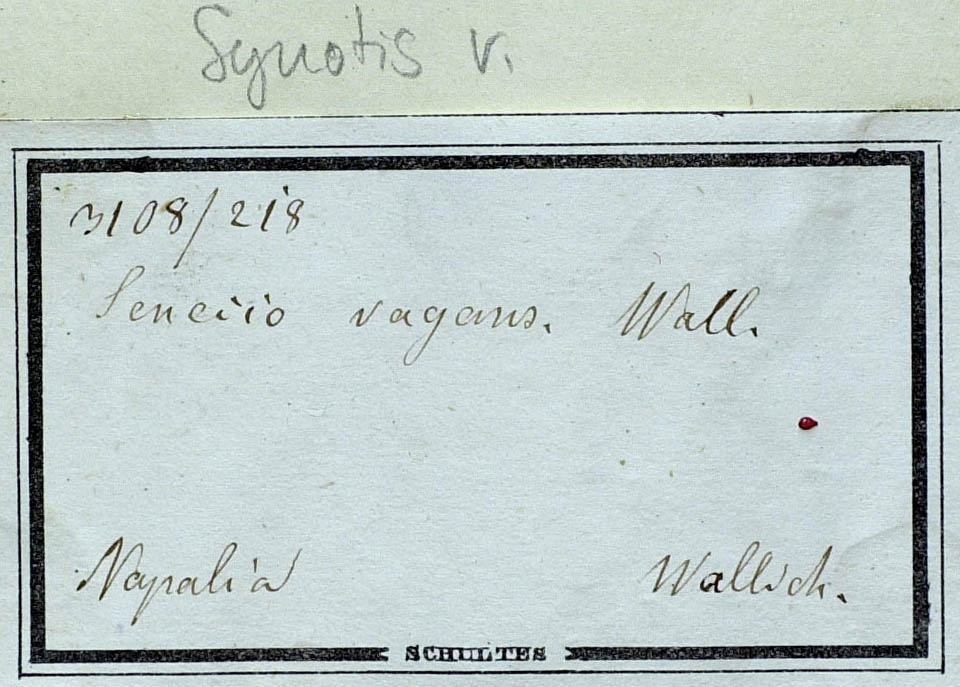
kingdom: Plantae
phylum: Tracheophyta
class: Magnoliopsida
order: Asterales
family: Asteraceae
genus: Synotis
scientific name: Synotis vagans
